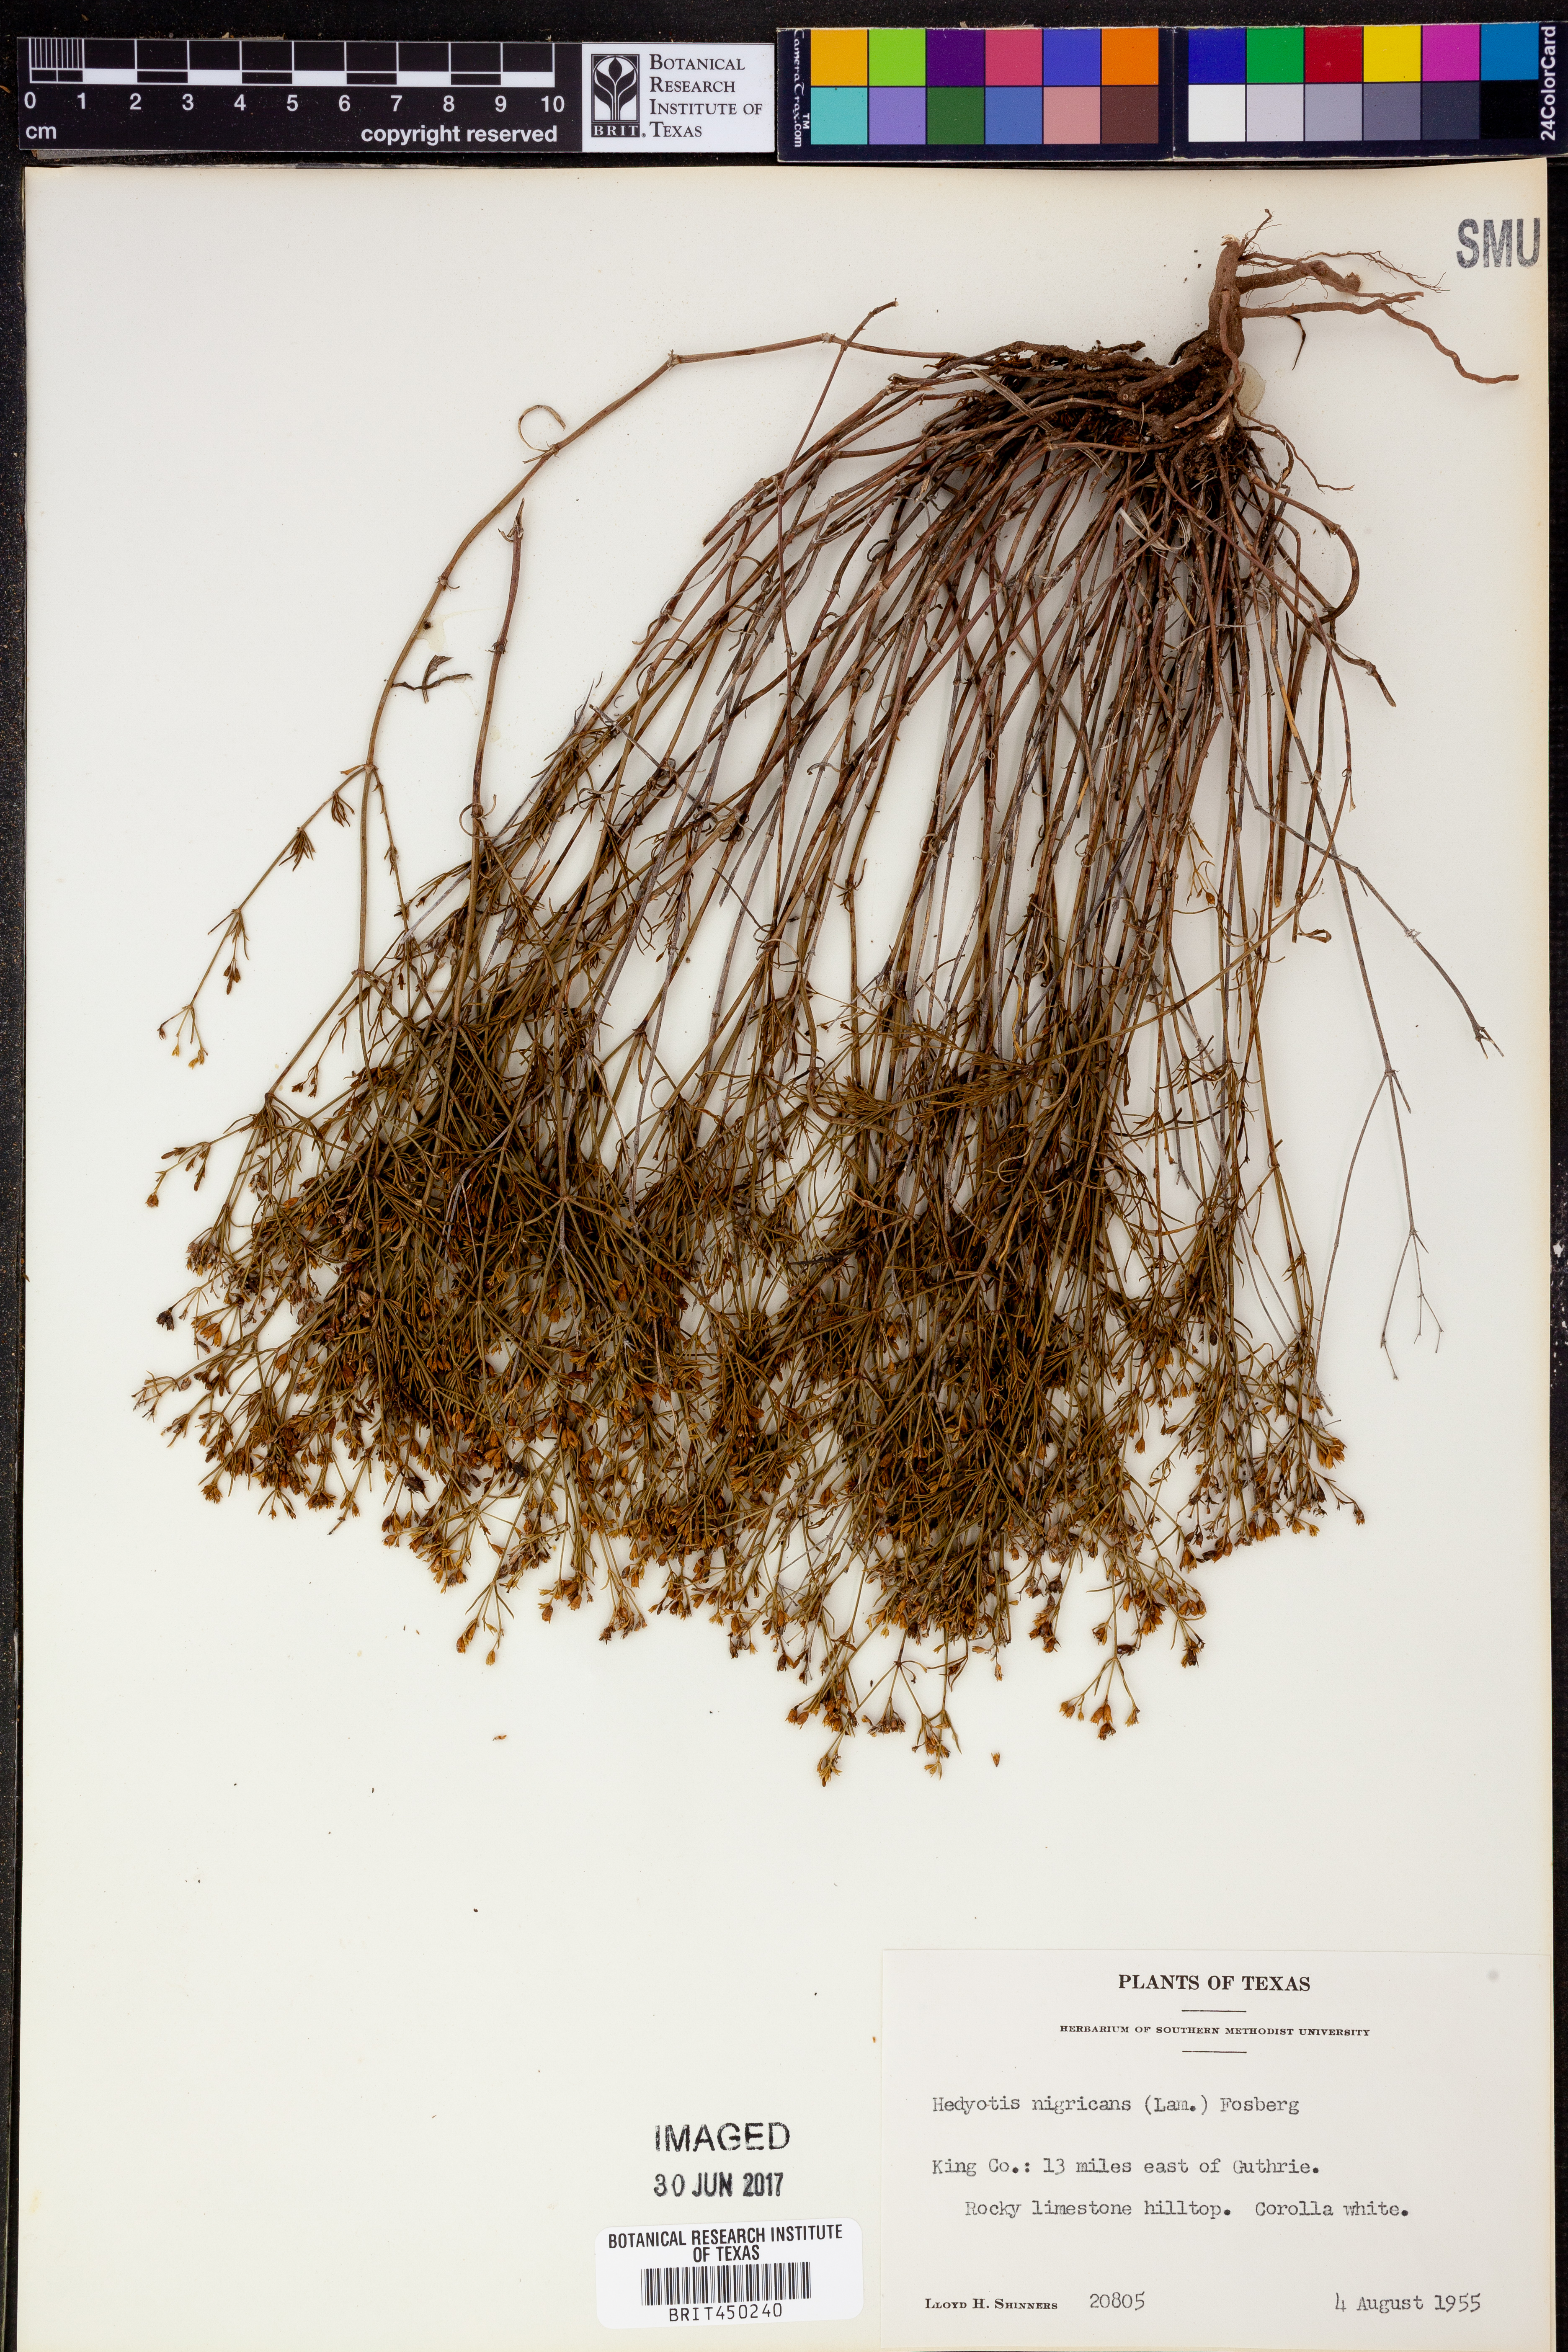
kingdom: Plantae
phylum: Tracheophyta
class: Magnoliopsida
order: Gentianales
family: Rubiaceae
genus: Stenaria
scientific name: Stenaria nigricans
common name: Diamondflowers
